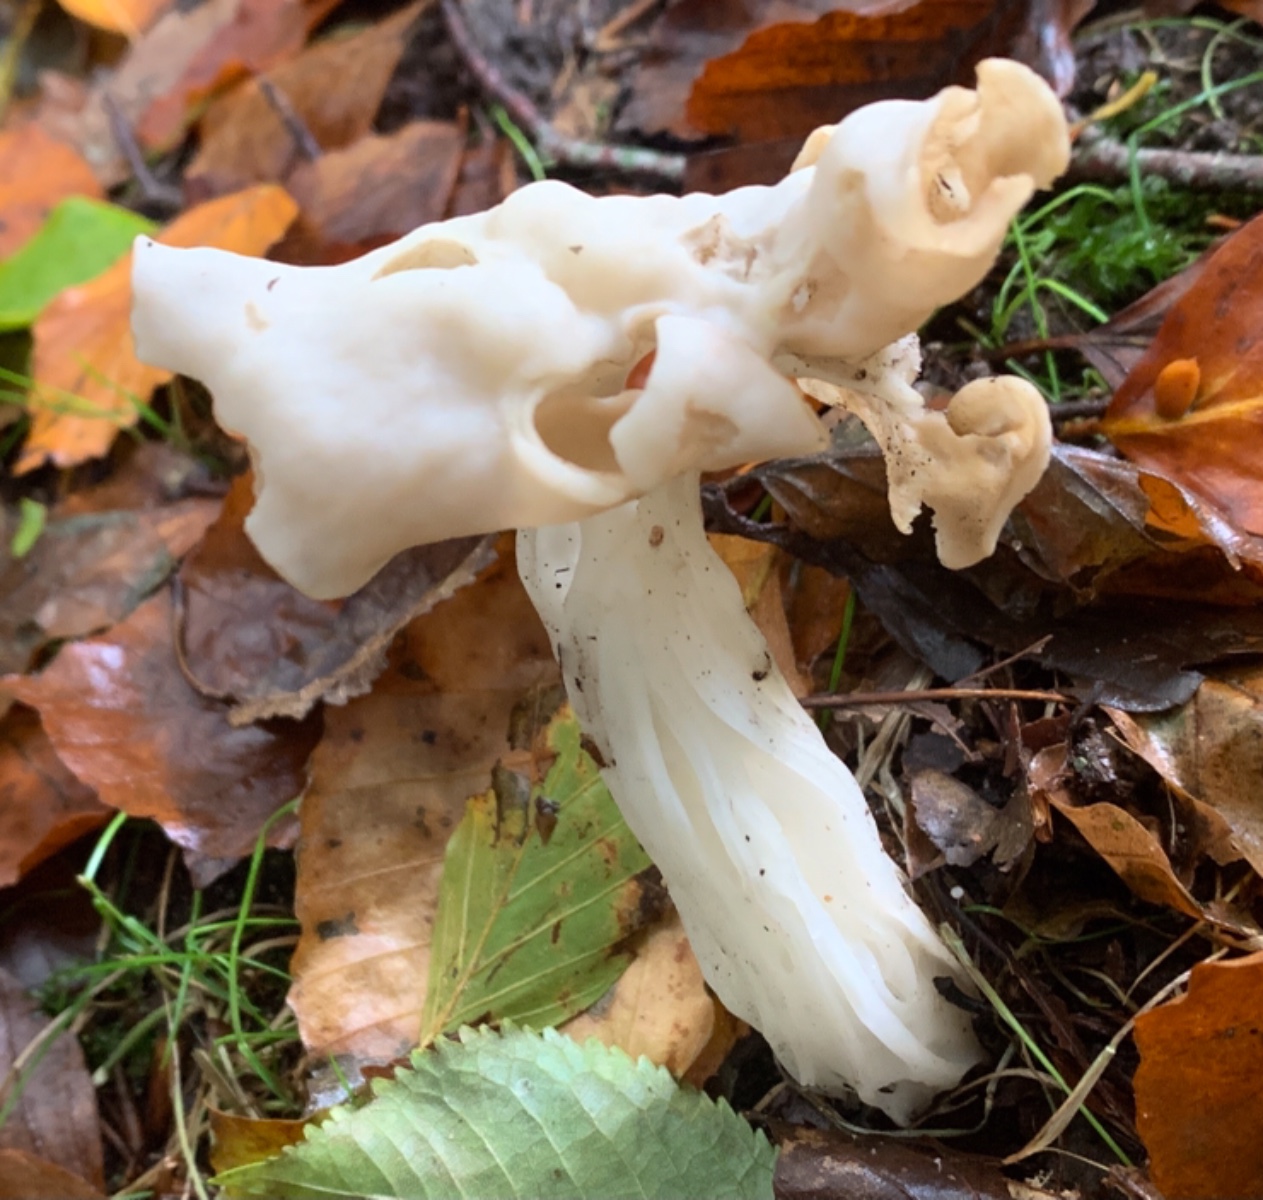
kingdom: Fungi
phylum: Ascomycota
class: Pezizomycetes
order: Pezizales
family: Helvellaceae
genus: Helvella
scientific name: Helvella crispa
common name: kruset foldhat
